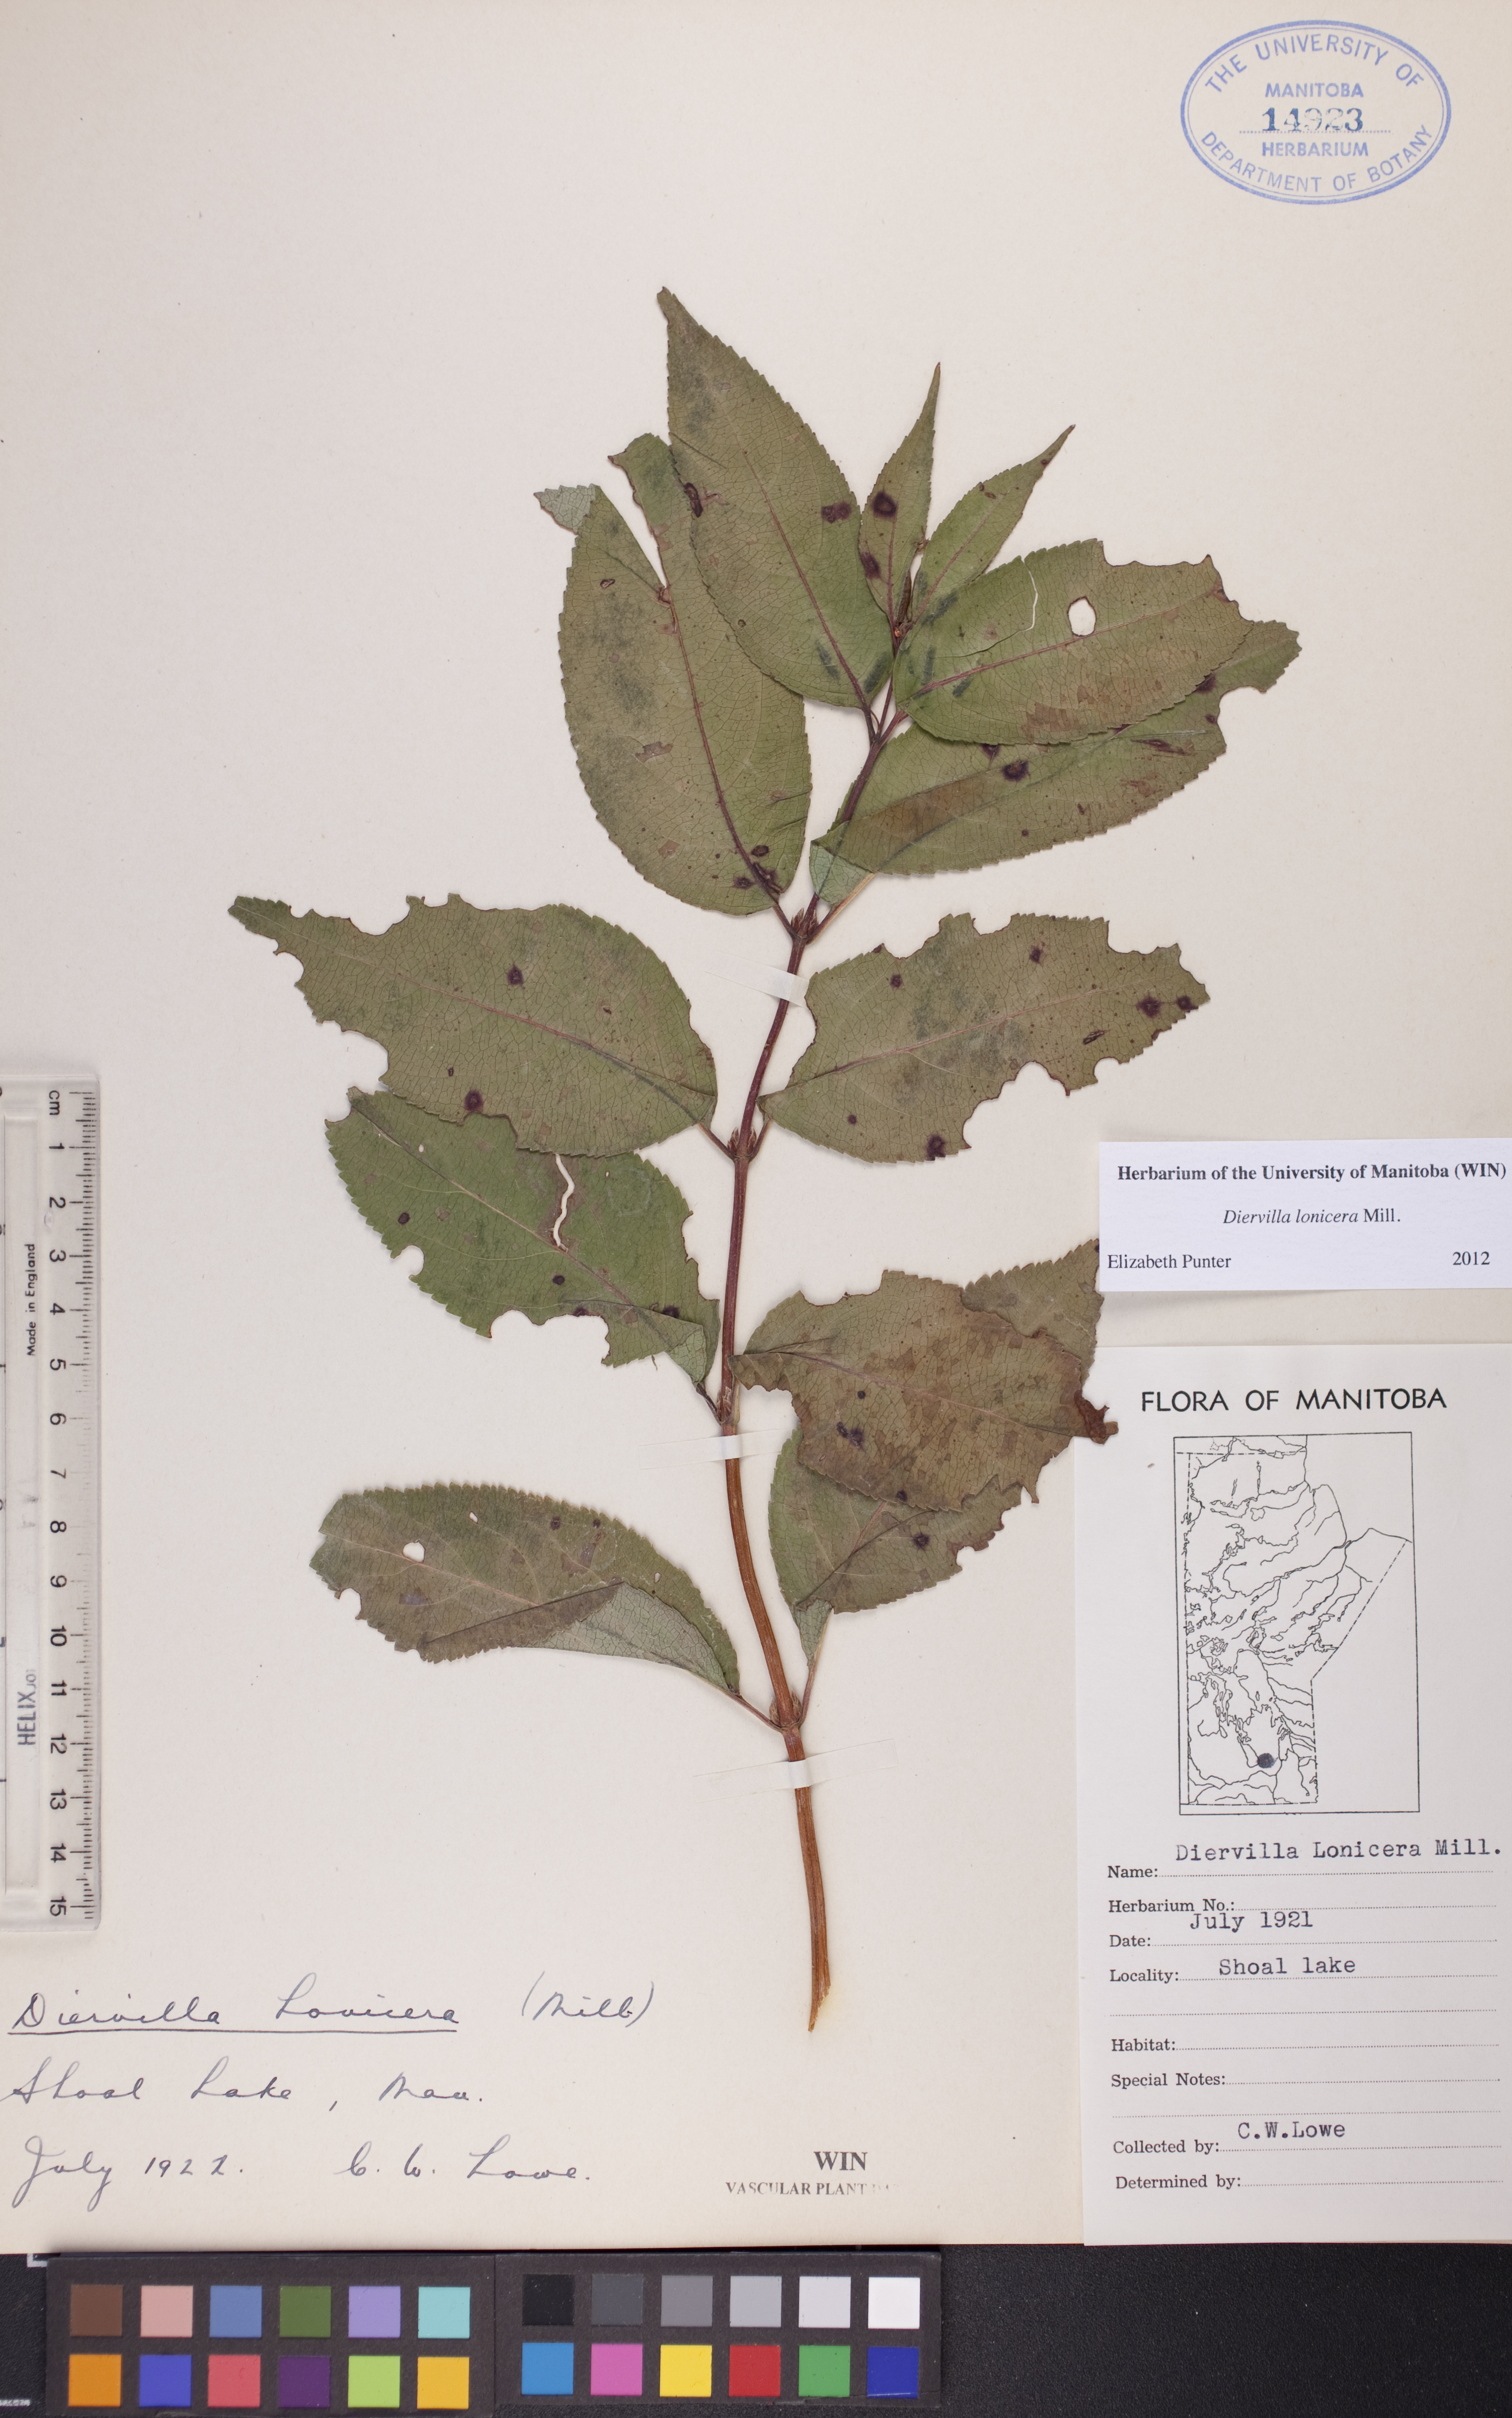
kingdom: Plantae
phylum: Tracheophyta
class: Magnoliopsida
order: Dipsacales
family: Caprifoliaceae
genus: Diervilla
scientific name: Diervilla lonicera
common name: Bush-honeysuckle
